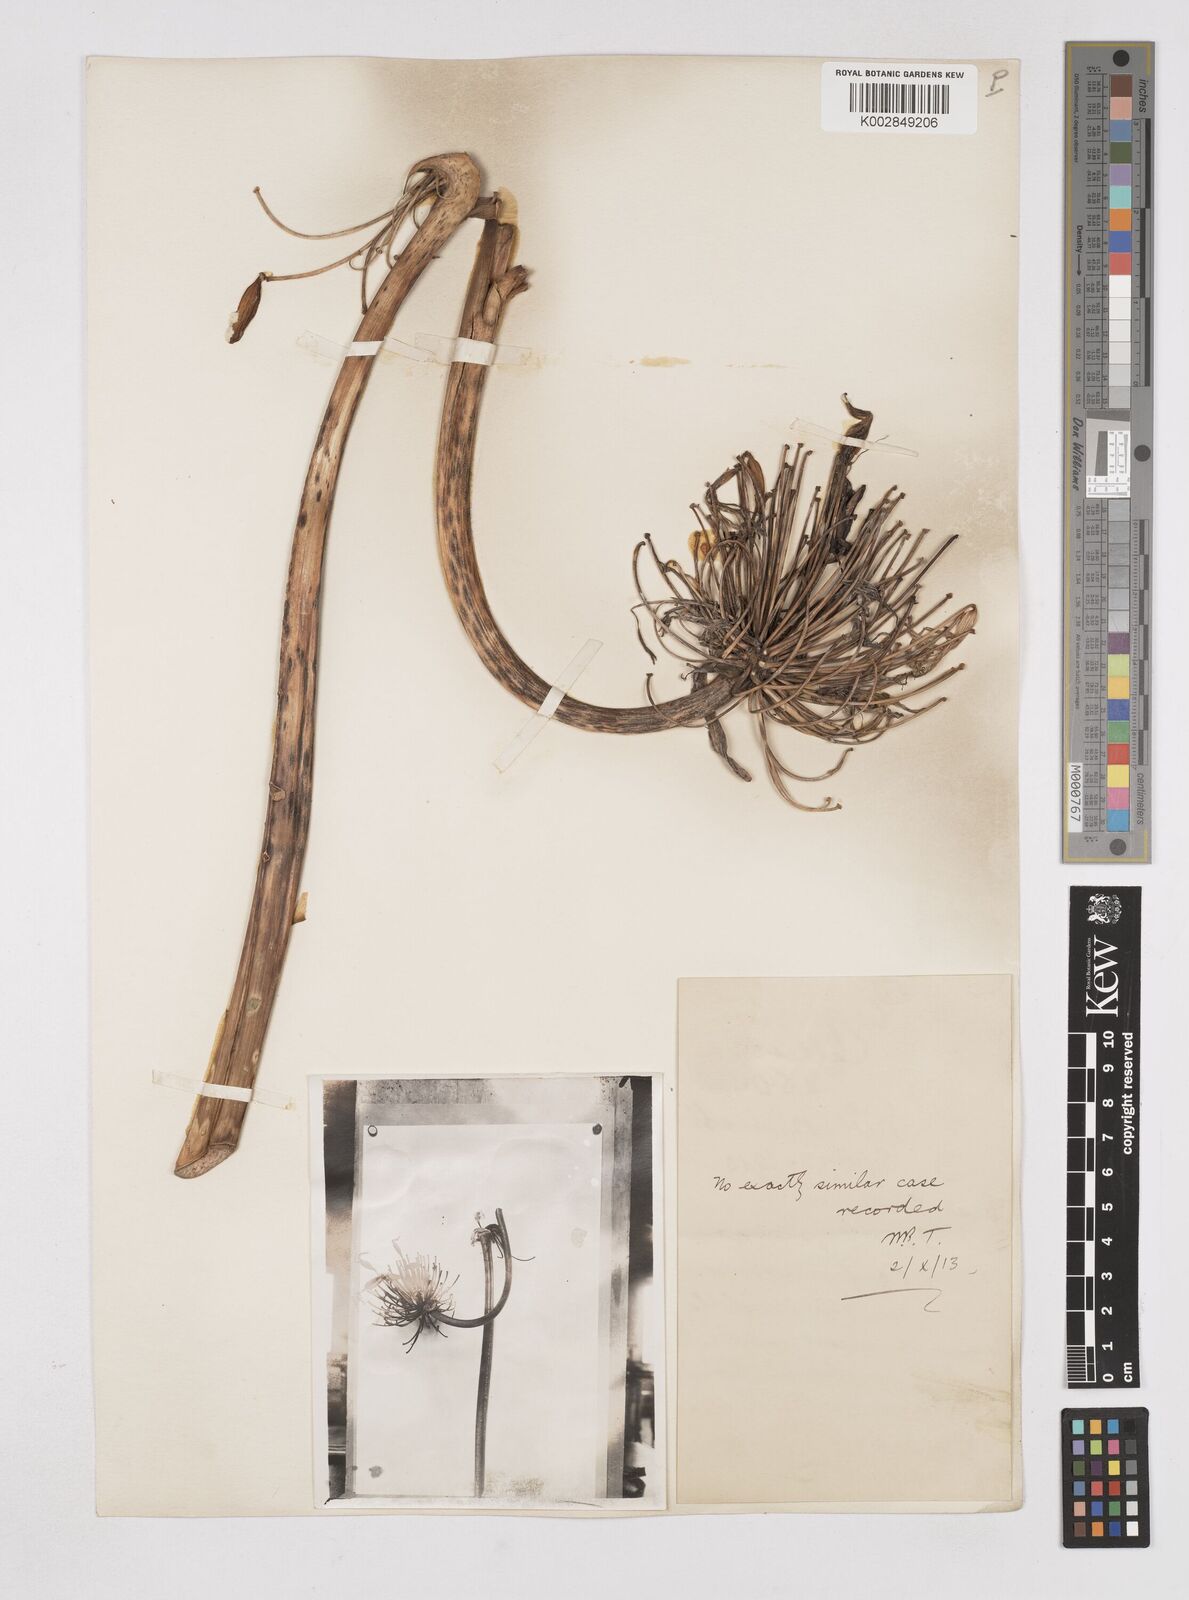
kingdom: Plantae
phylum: Tracheophyta
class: Liliopsida
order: Liliales
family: Liliaceae
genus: Agapanthus
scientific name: Agapanthus
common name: Agapanthus
